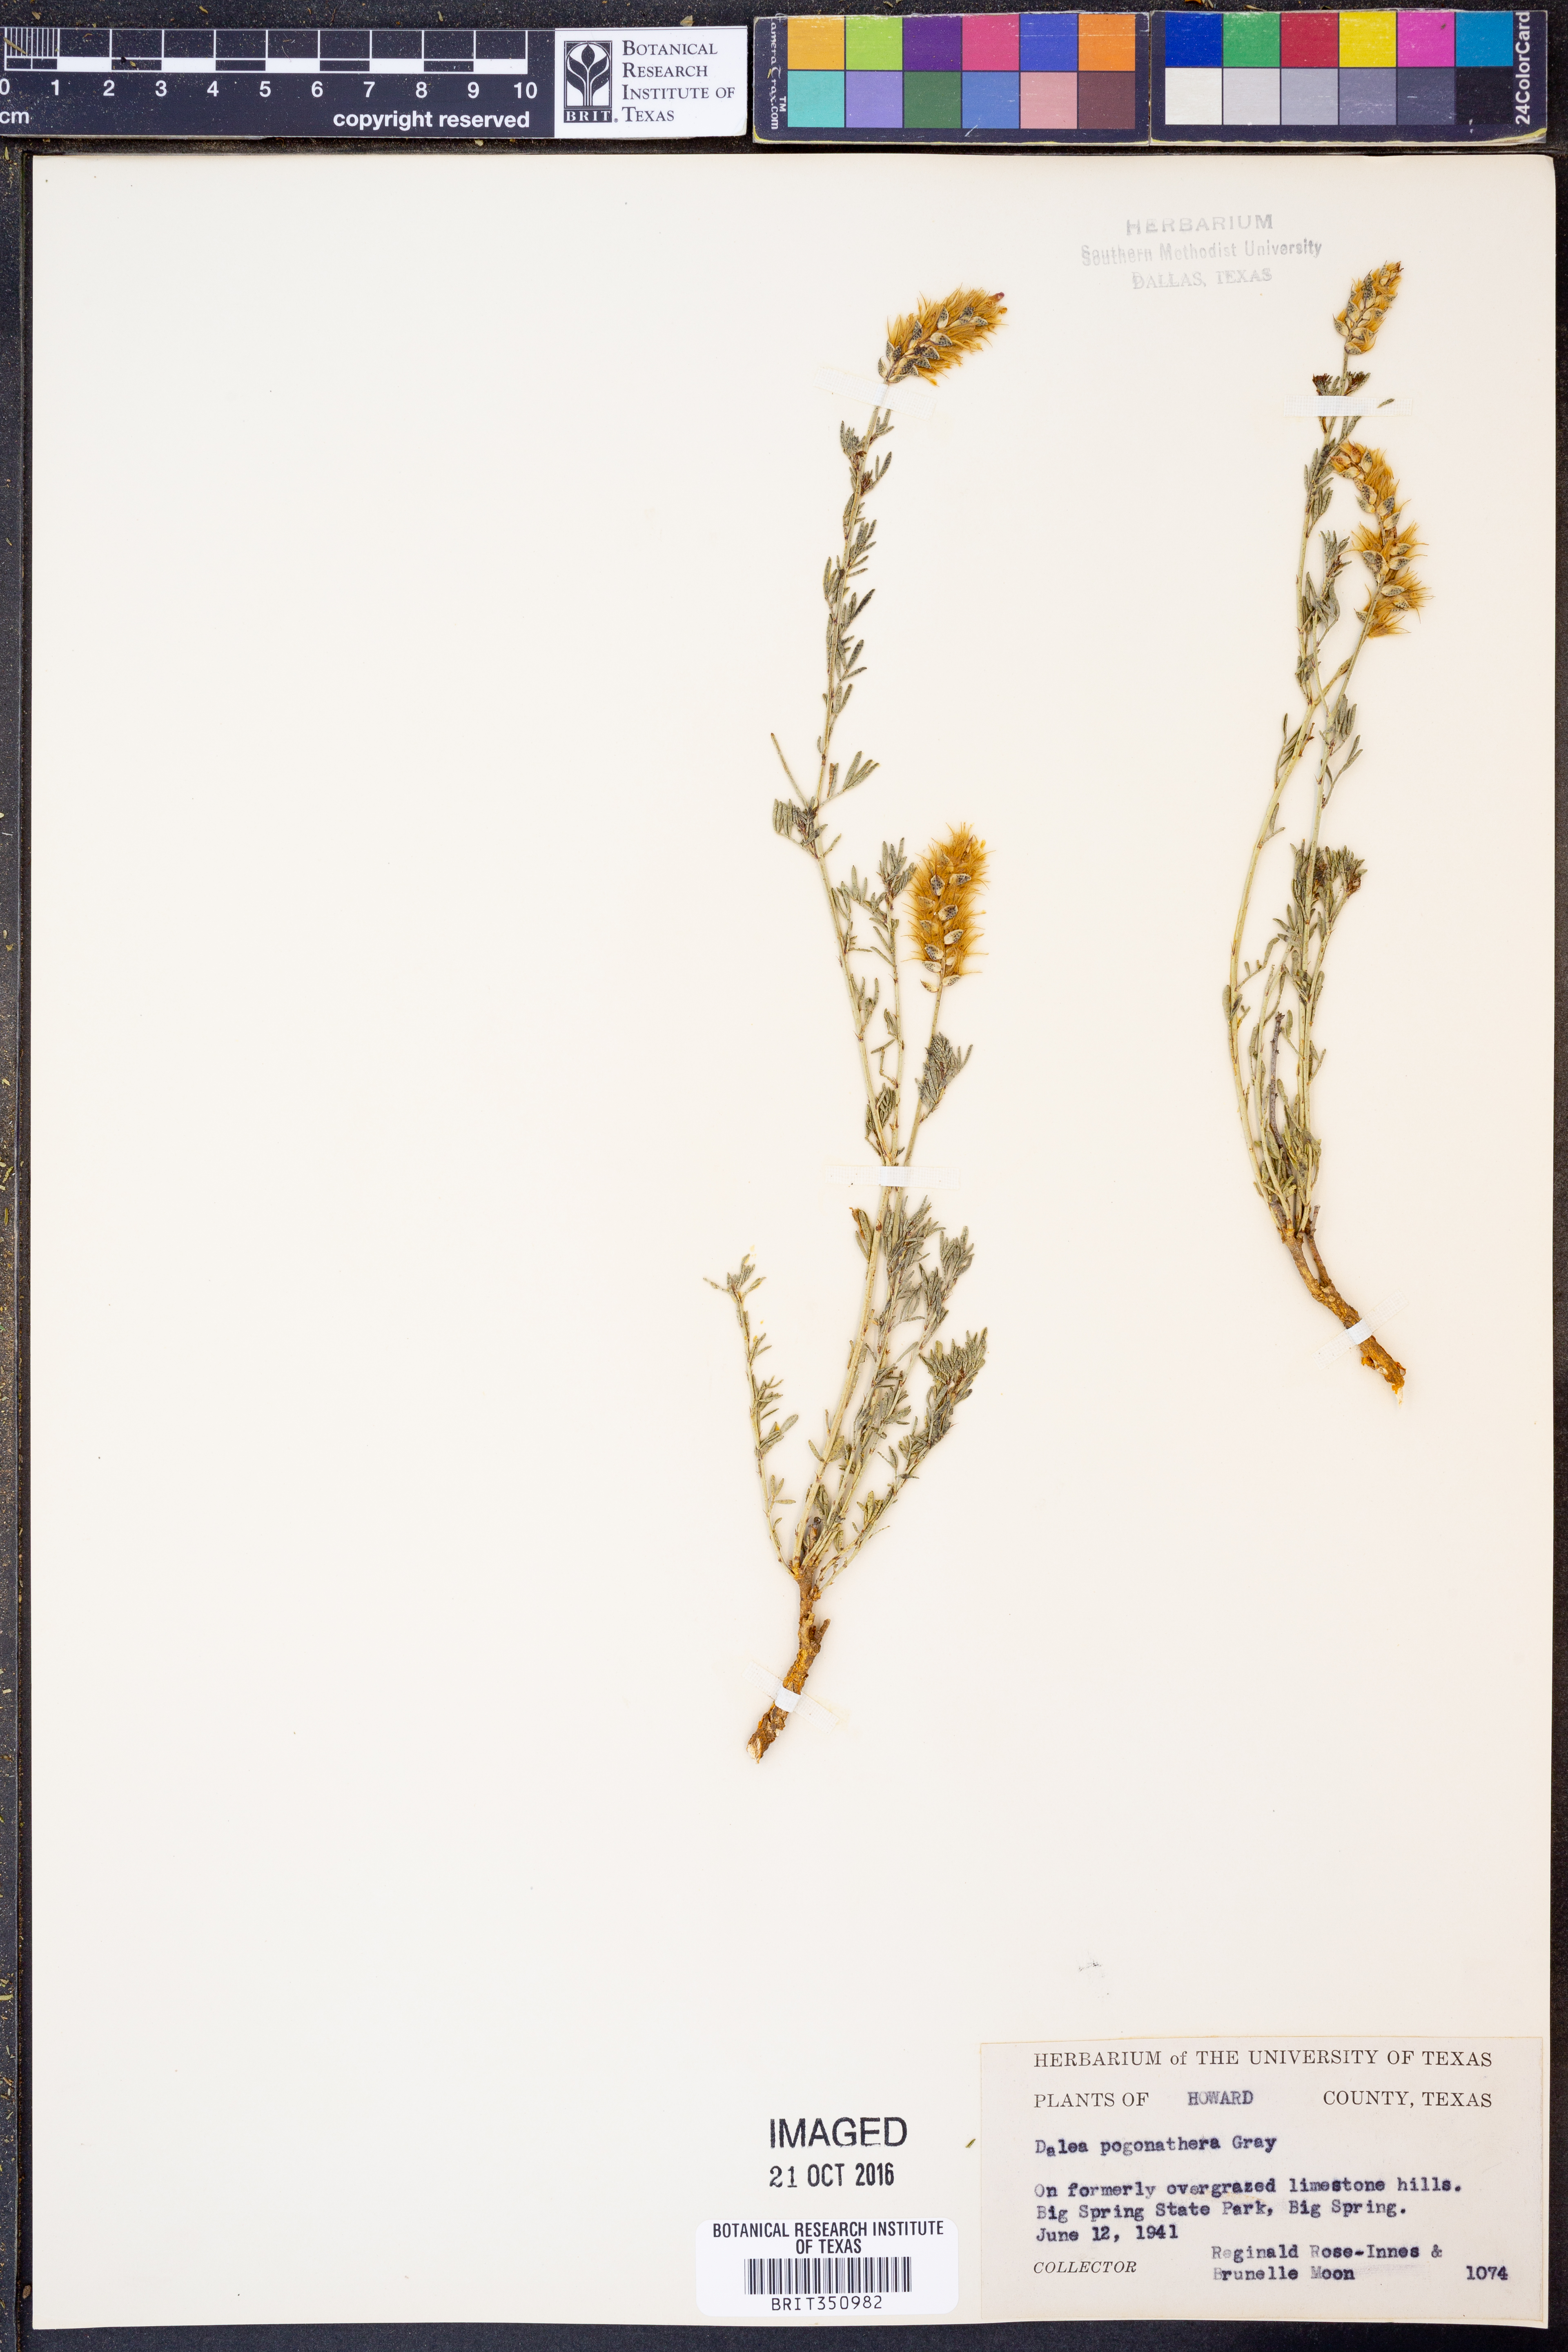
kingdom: Plantae
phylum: Tracheophyta
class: Magnoliopsida
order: Fabales
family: Fabaceae
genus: Dalea
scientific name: Dalea pogonathera
